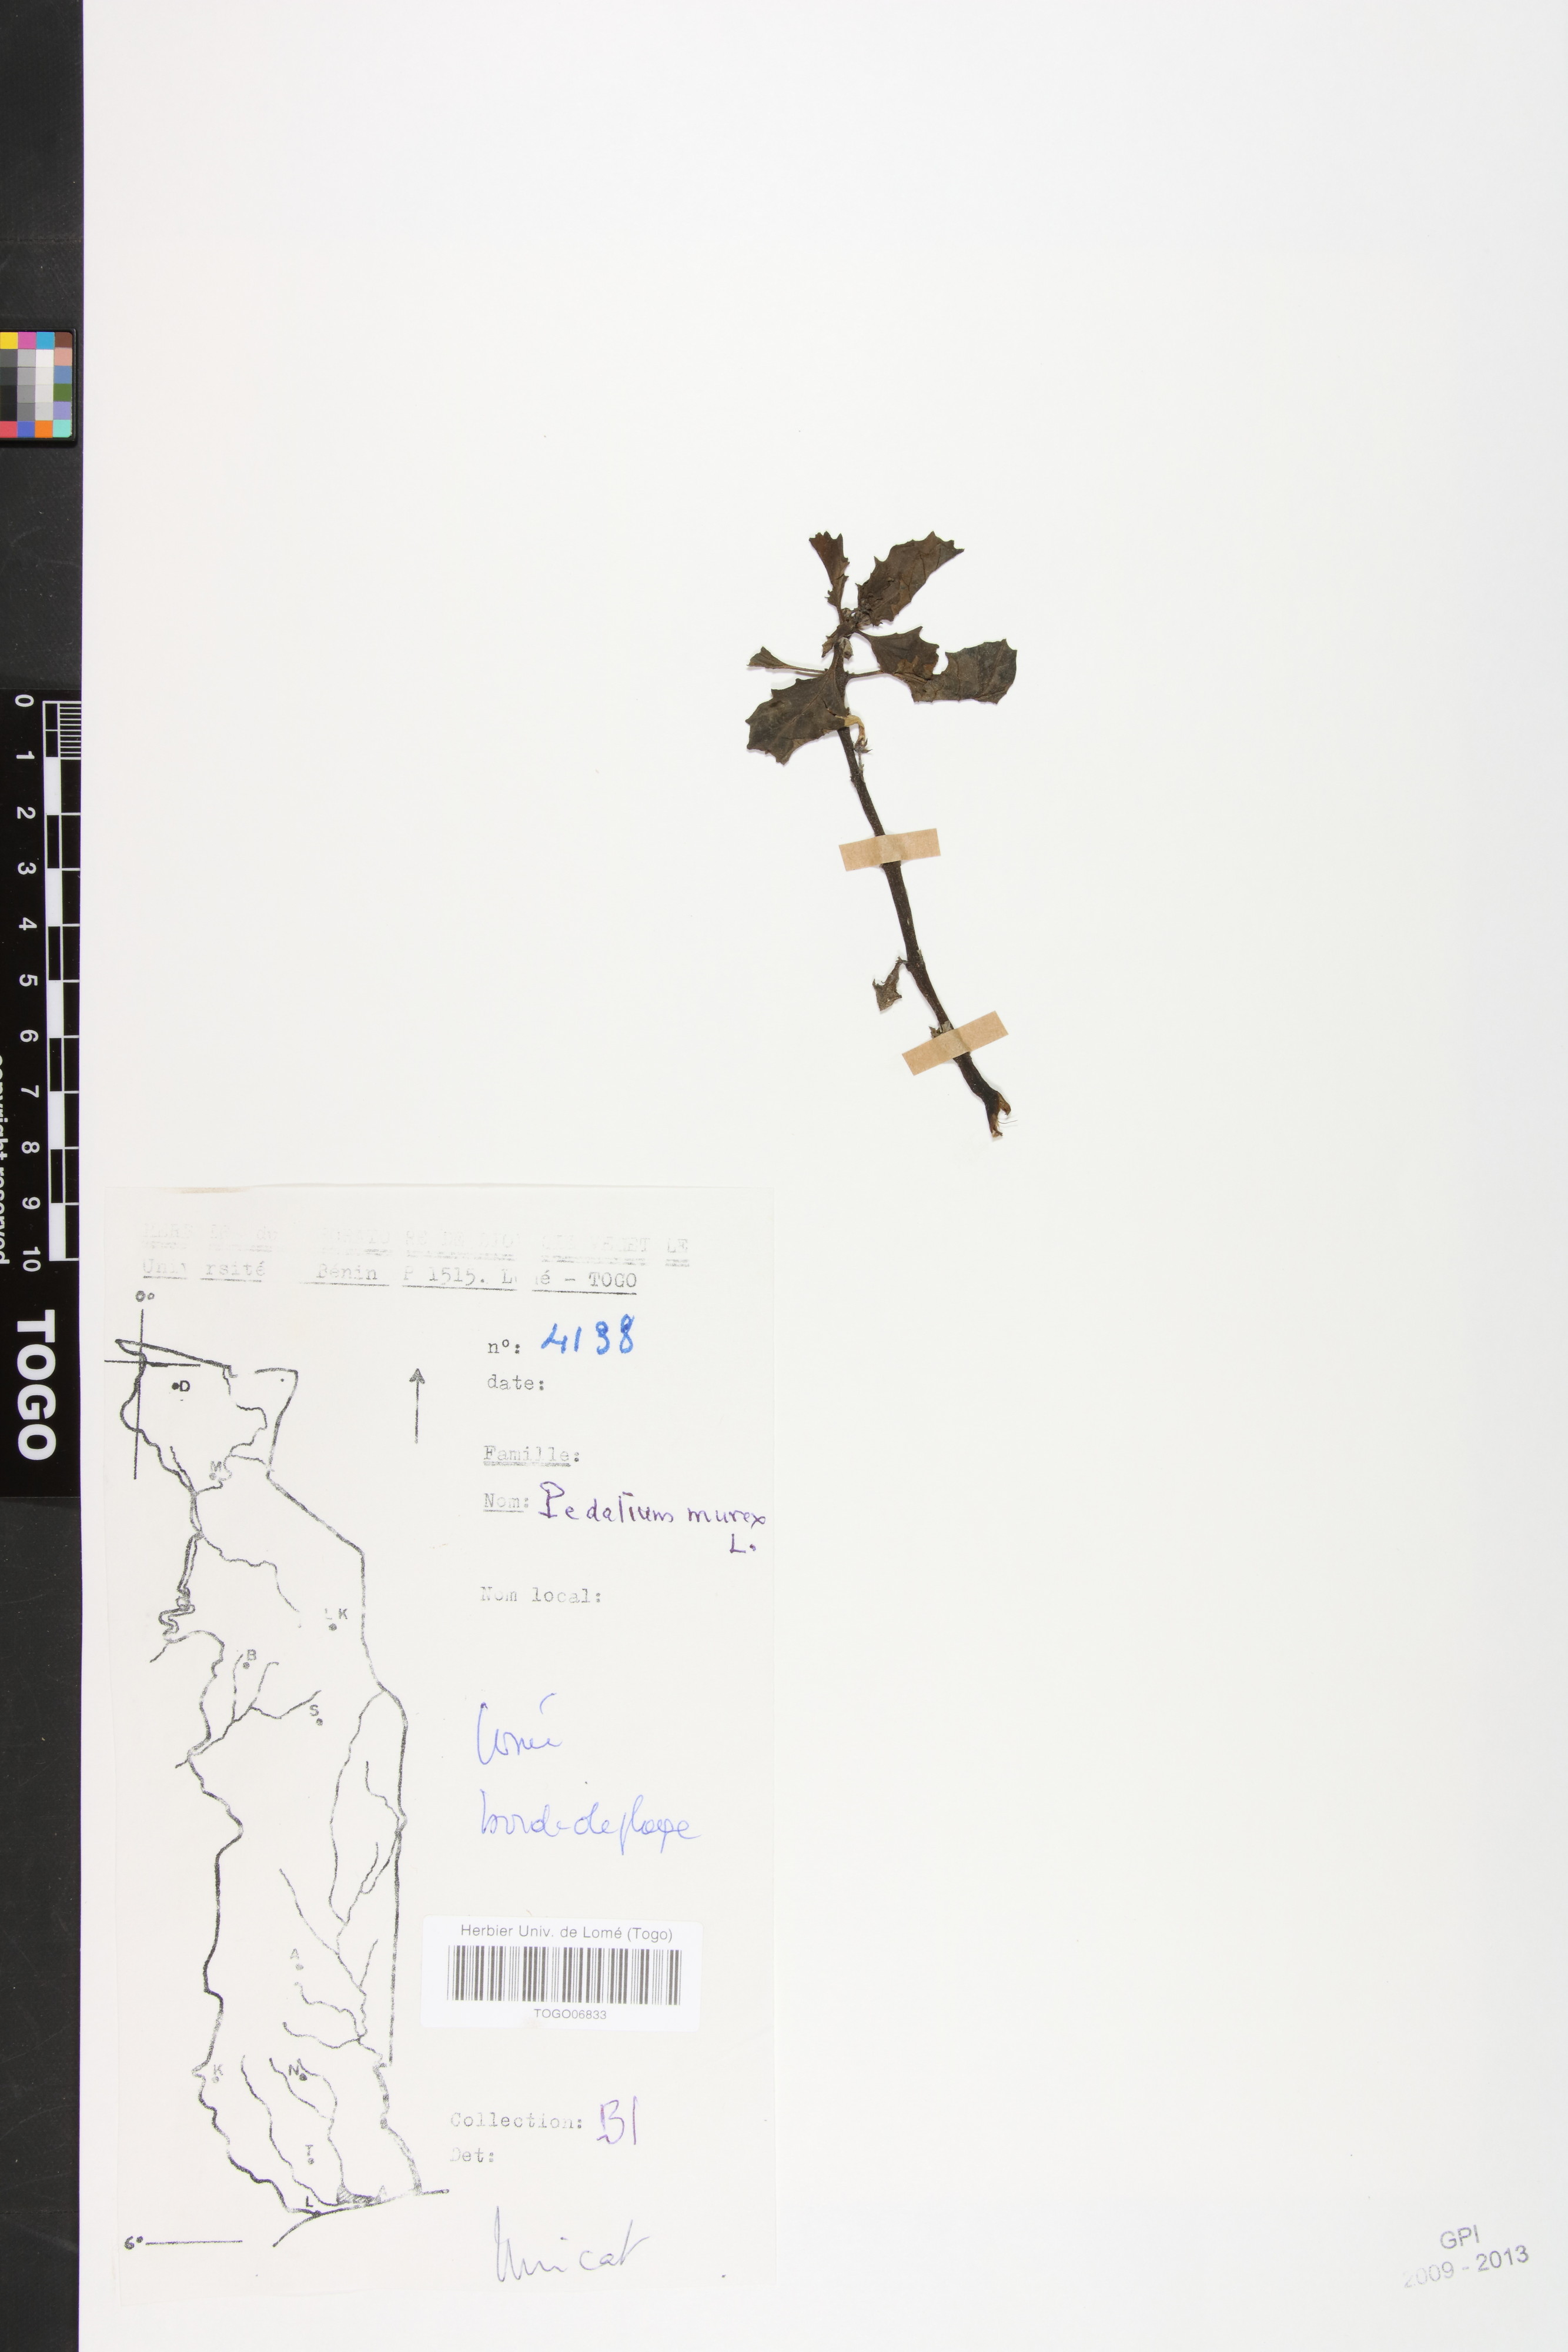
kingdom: Plantae
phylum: Tracheophyta
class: Magnoliopsida
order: Lamiales
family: Pedaliaceae
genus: Pedalium
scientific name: Pedalium murex
